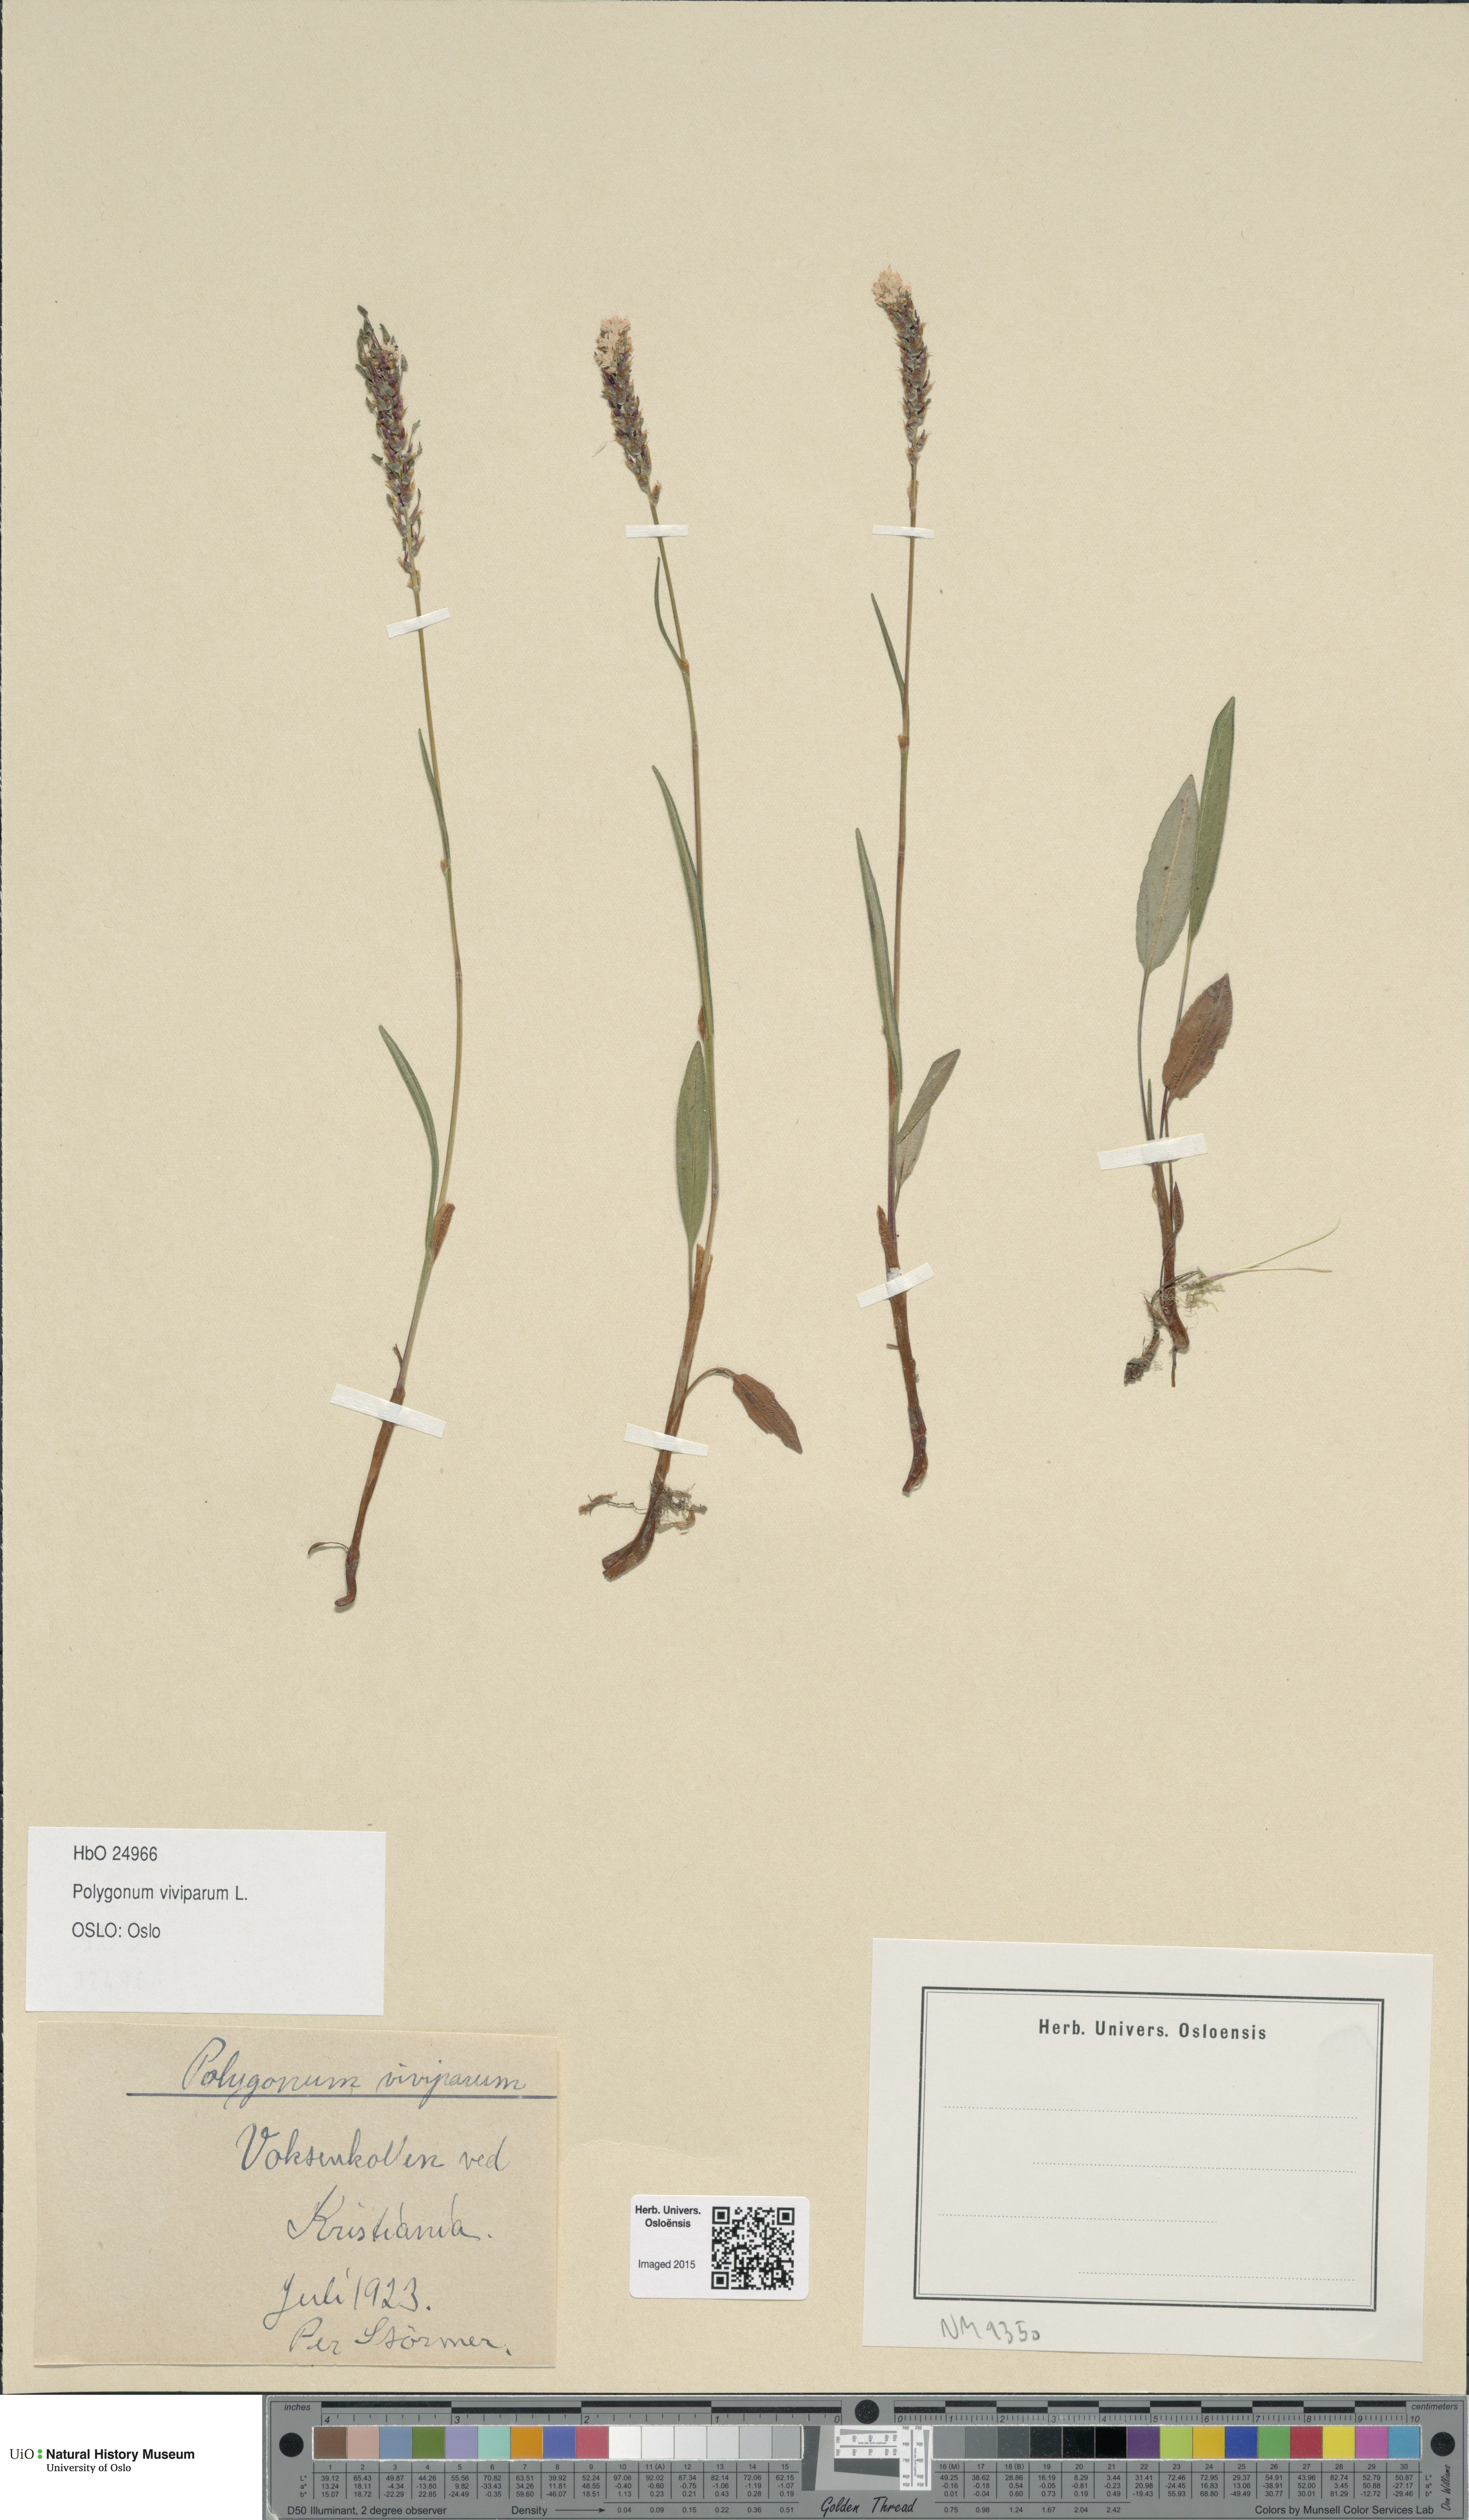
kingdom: Plantae
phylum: Tracheophyta
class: Magnoliopsida
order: Caryophyllales
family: Polygonaceae
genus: Bistorta
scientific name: Bistorta vivipara
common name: Alpine bistort
